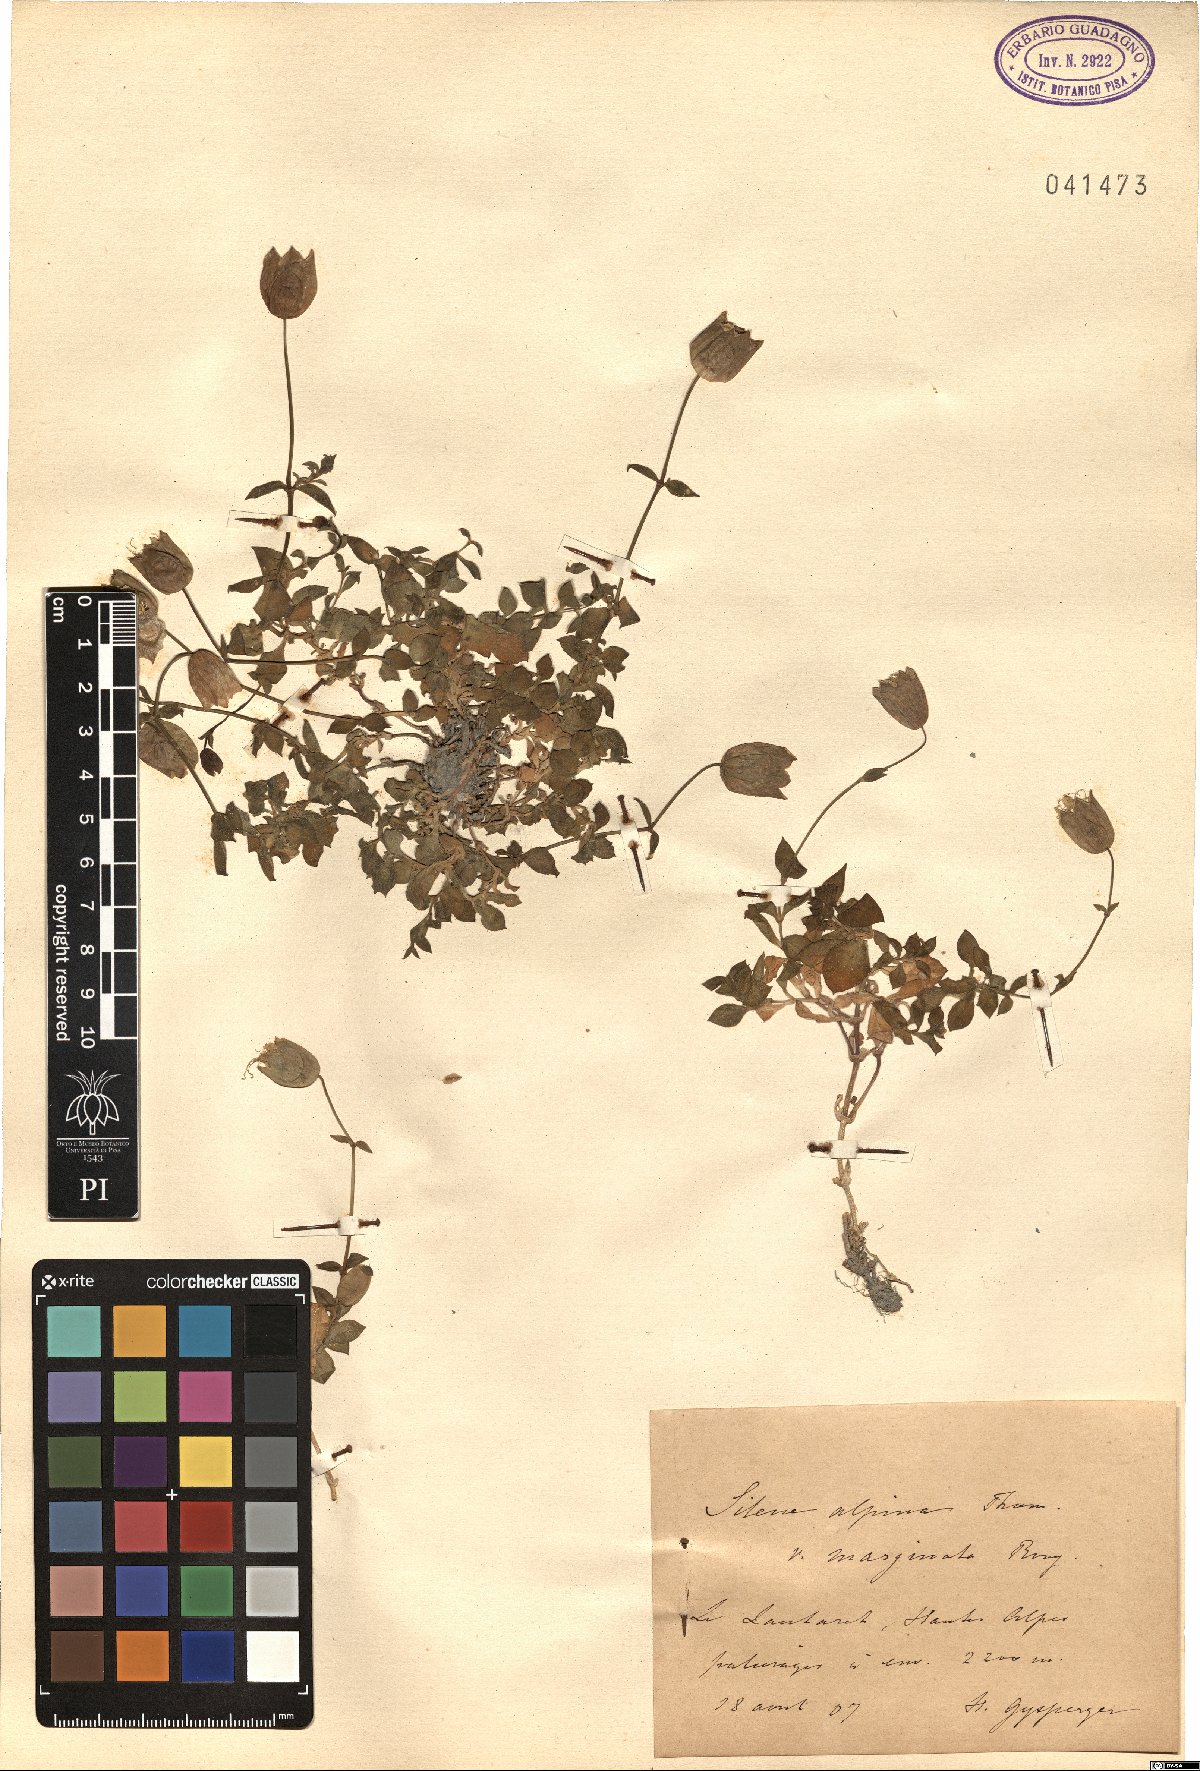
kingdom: Plantae
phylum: Tracheophyta
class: Magnoliopsida
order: Caryophyllales
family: Caryophyllaceae
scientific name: Caryophyllaceae
